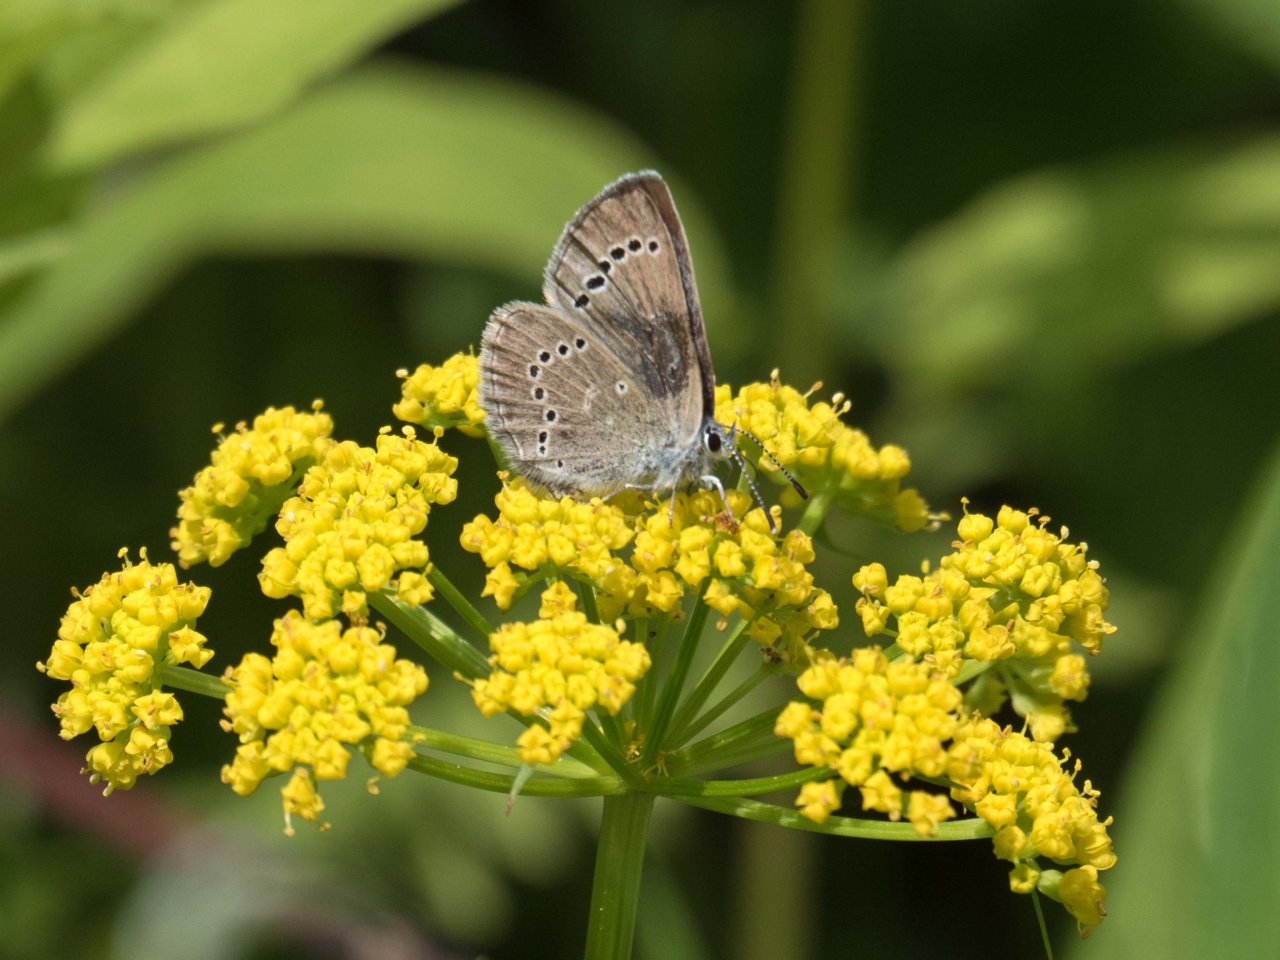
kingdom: Animalia
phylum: Arthropoda
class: Insecta
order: Lepidoptera
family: Lycaenidae
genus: Glaucopsyche
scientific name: Glaucopsyche lygdamus
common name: Silvery Blue
